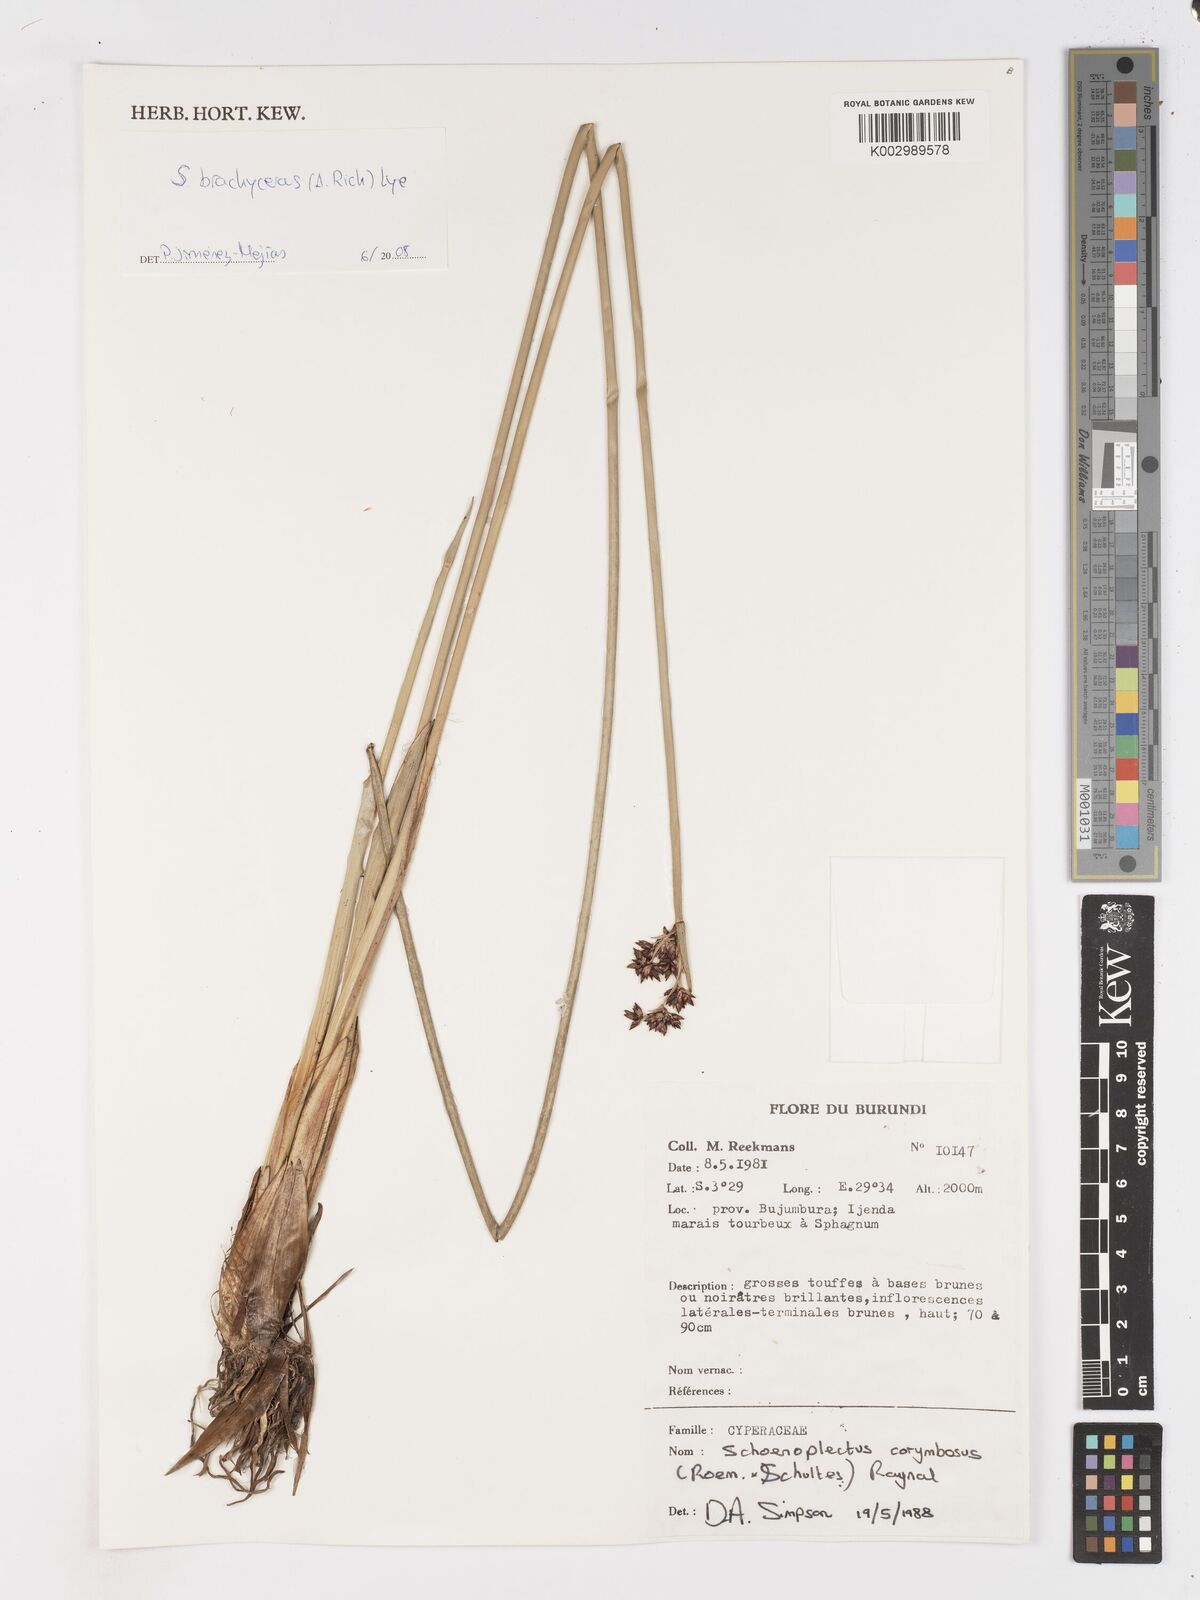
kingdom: Plantae
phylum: Tracheophyta
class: Liliopsida
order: Poales
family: Cyperaceae
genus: Schoenoplectiella
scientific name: Schoenoplectiella corymbosa
